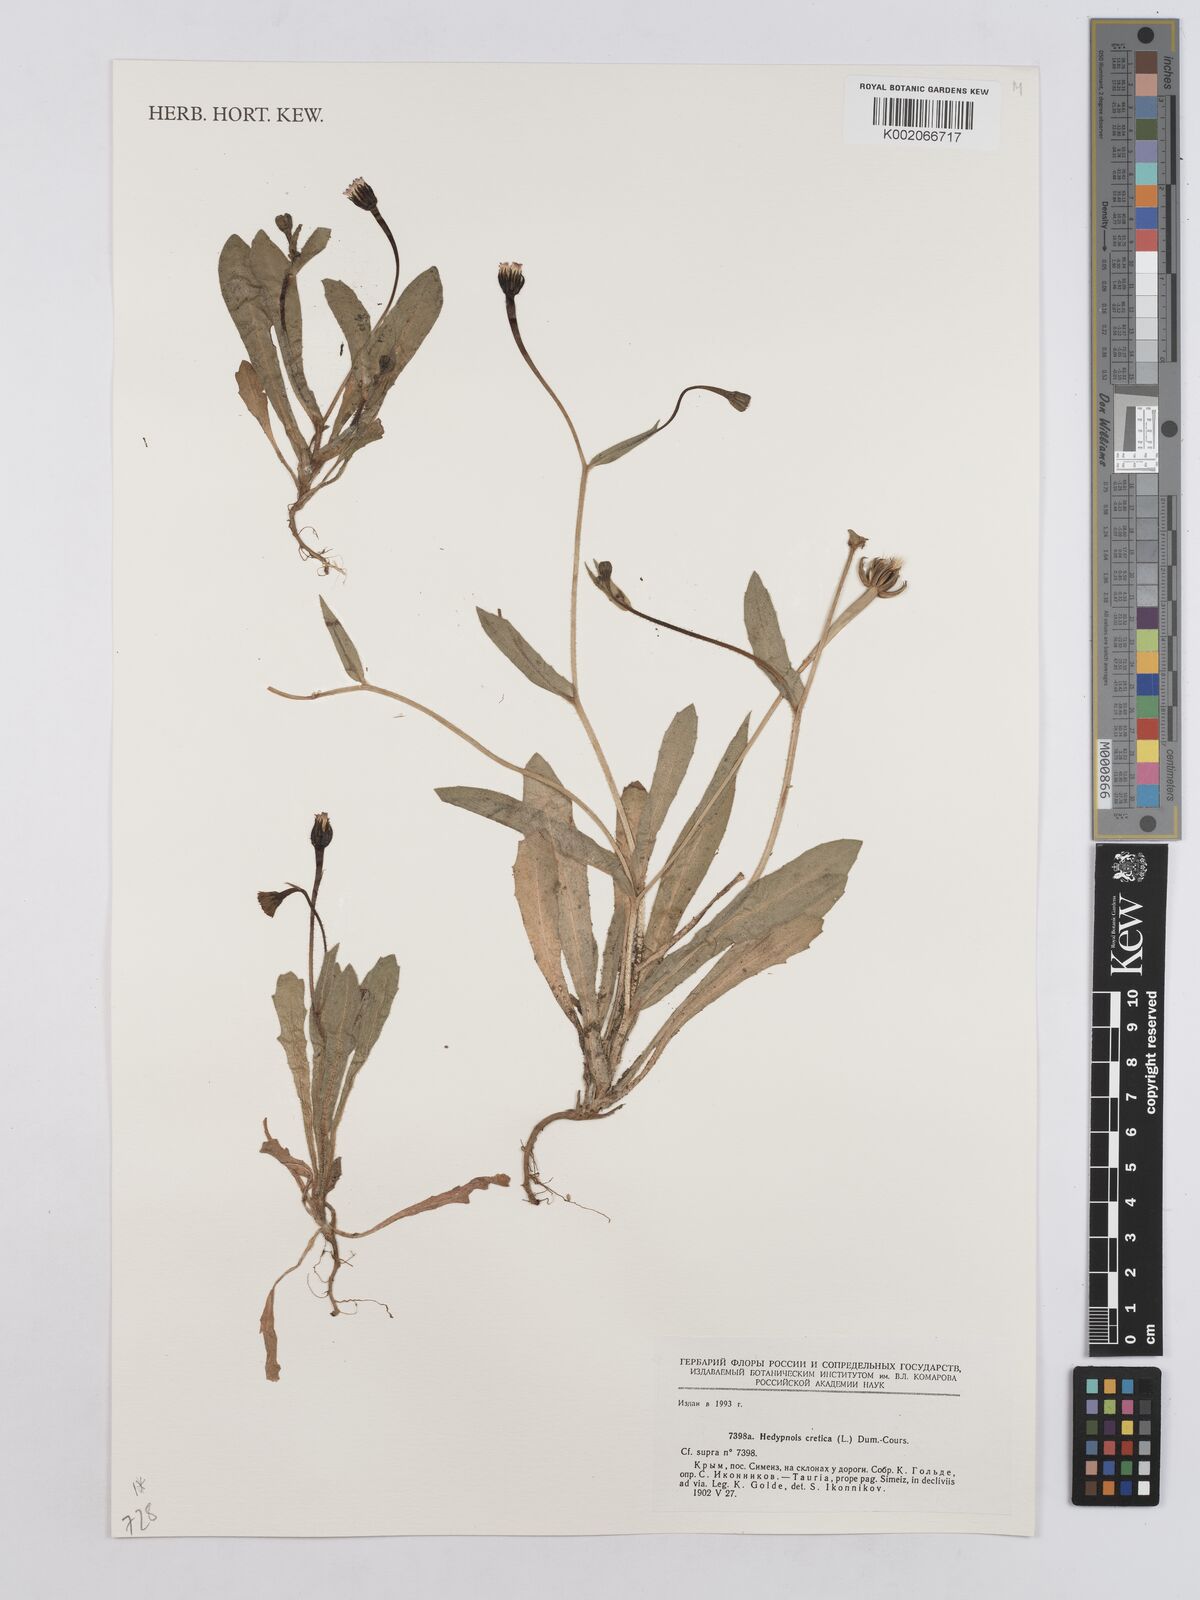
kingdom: Plantae
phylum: Tracheophyta
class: Magnoliopsida
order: Asterales
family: Asteraceae
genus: Hedypnois
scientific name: Hedypnois cretica
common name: Scaly hawkbit
